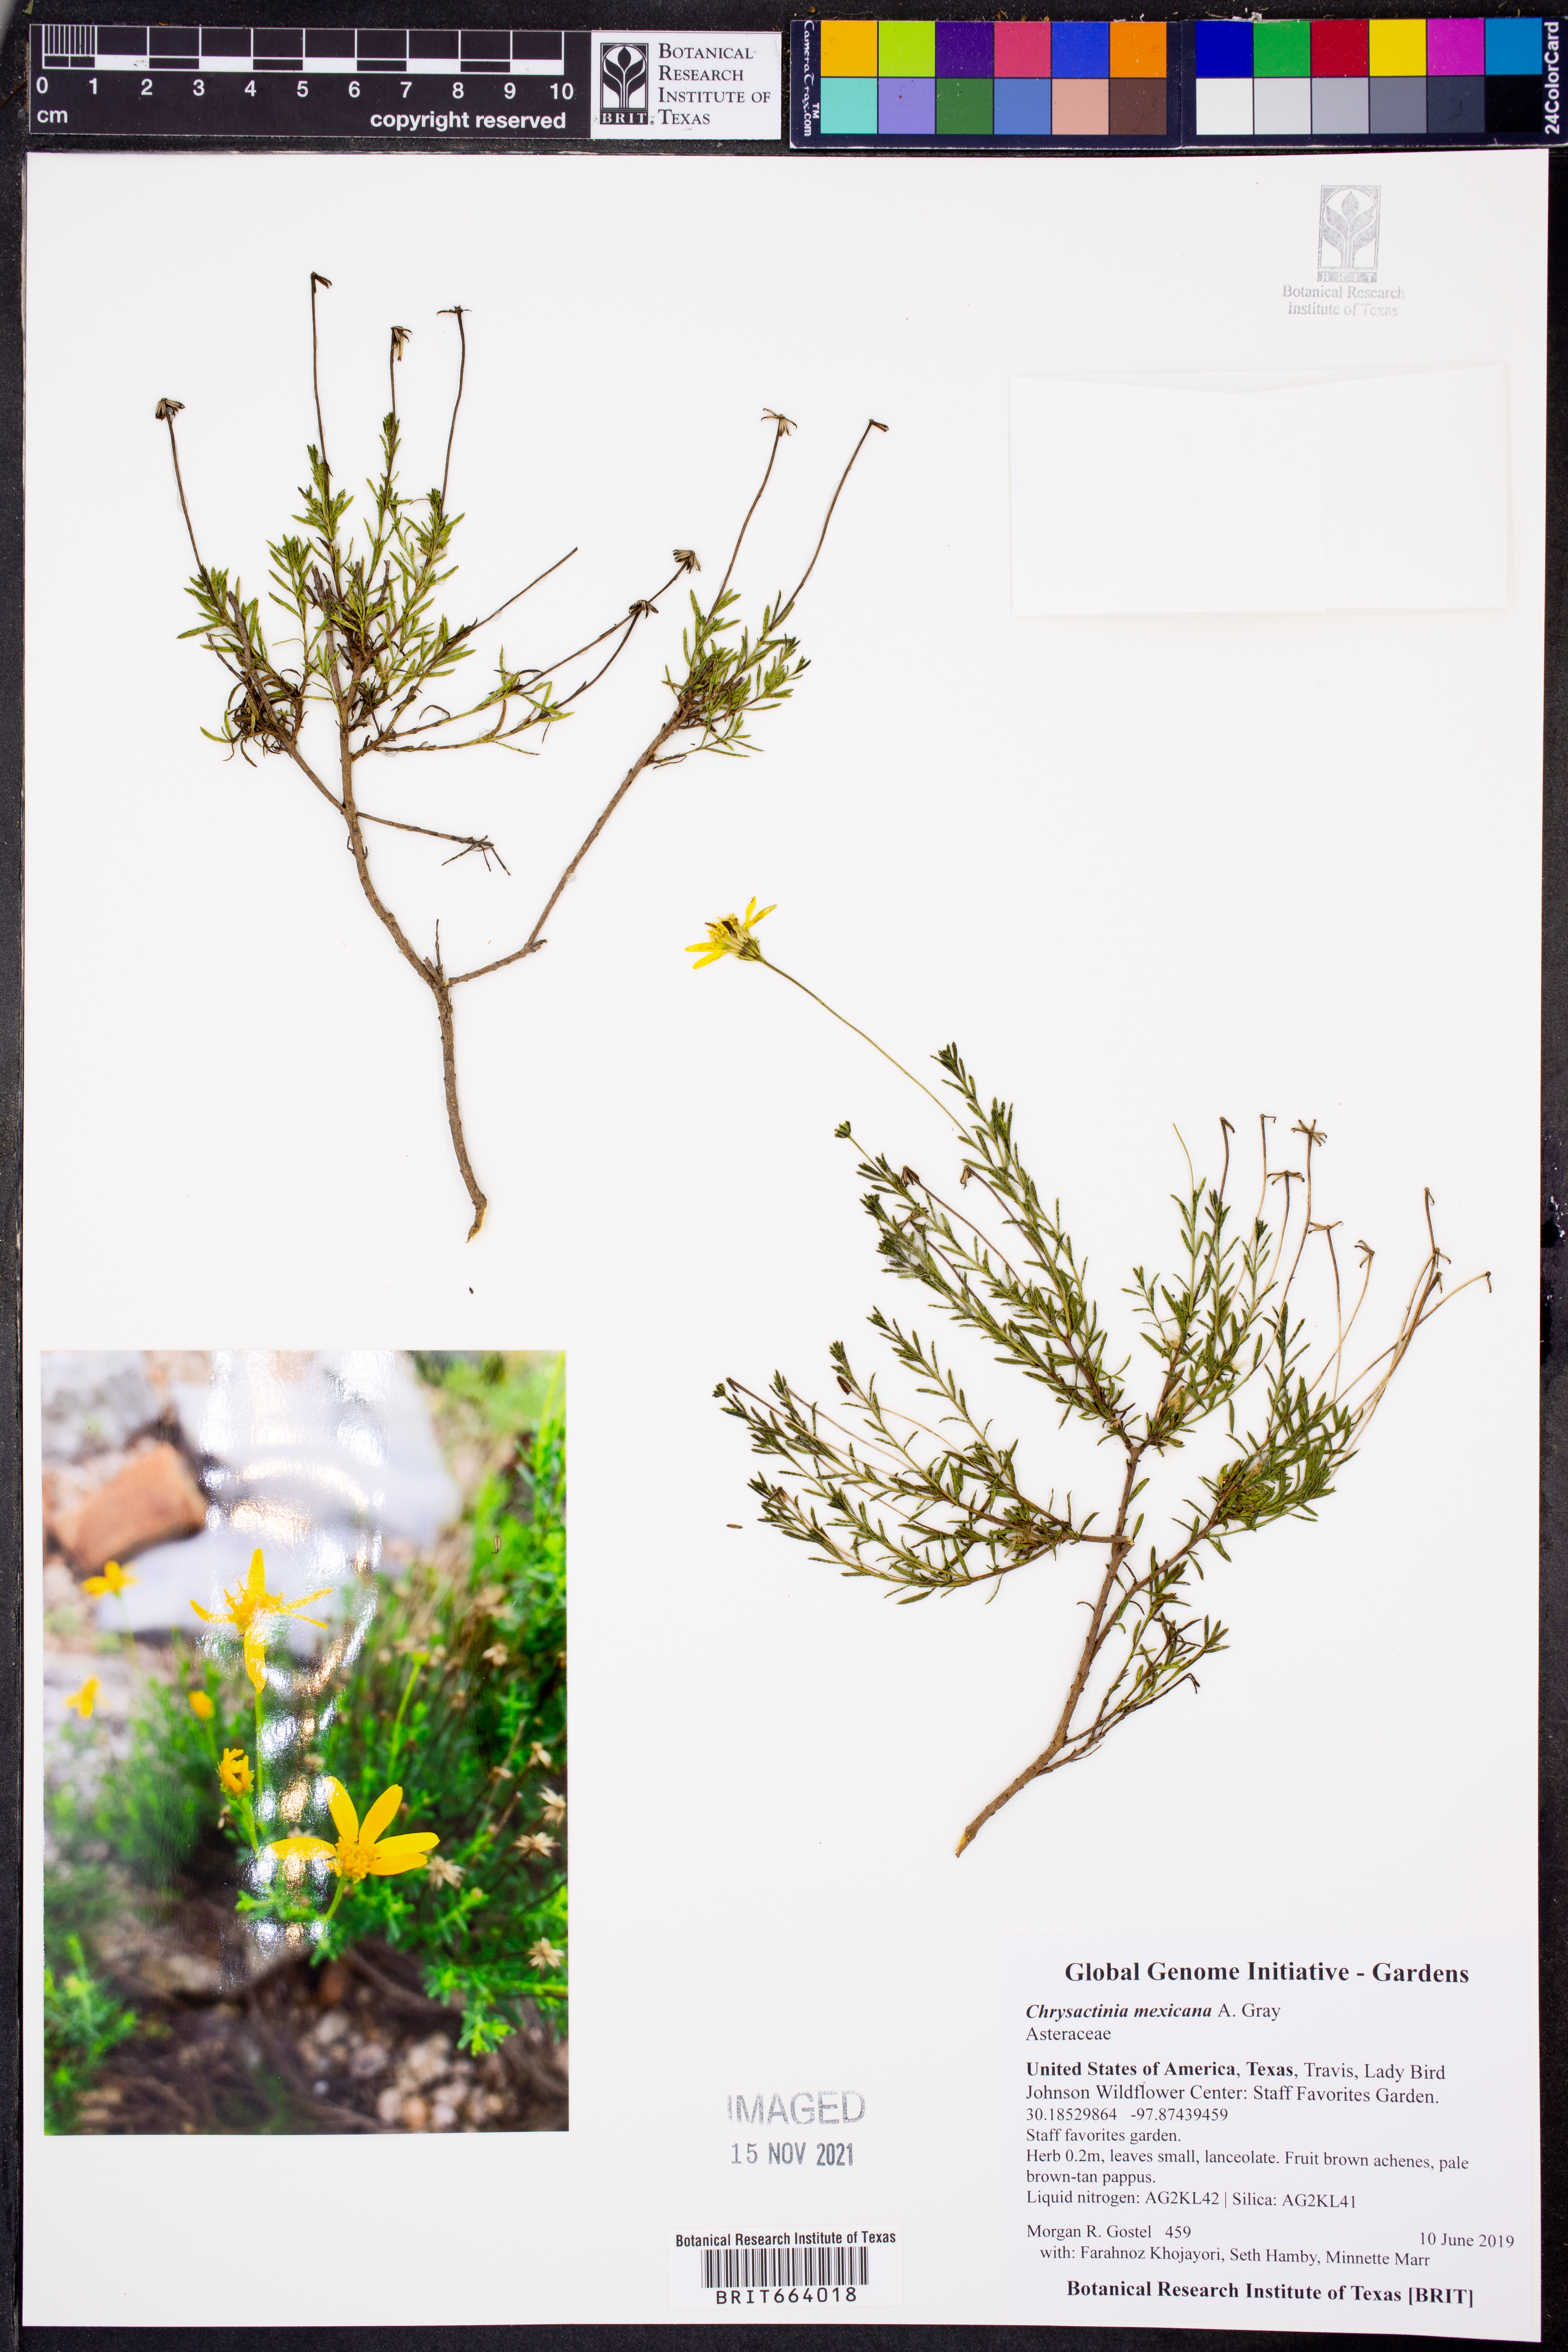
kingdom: Plantae
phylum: Tracheophyta
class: Magnoliopsida
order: Asterales
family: Asteraceae
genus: Chrysactinia
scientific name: Chrysactinia mexicana
